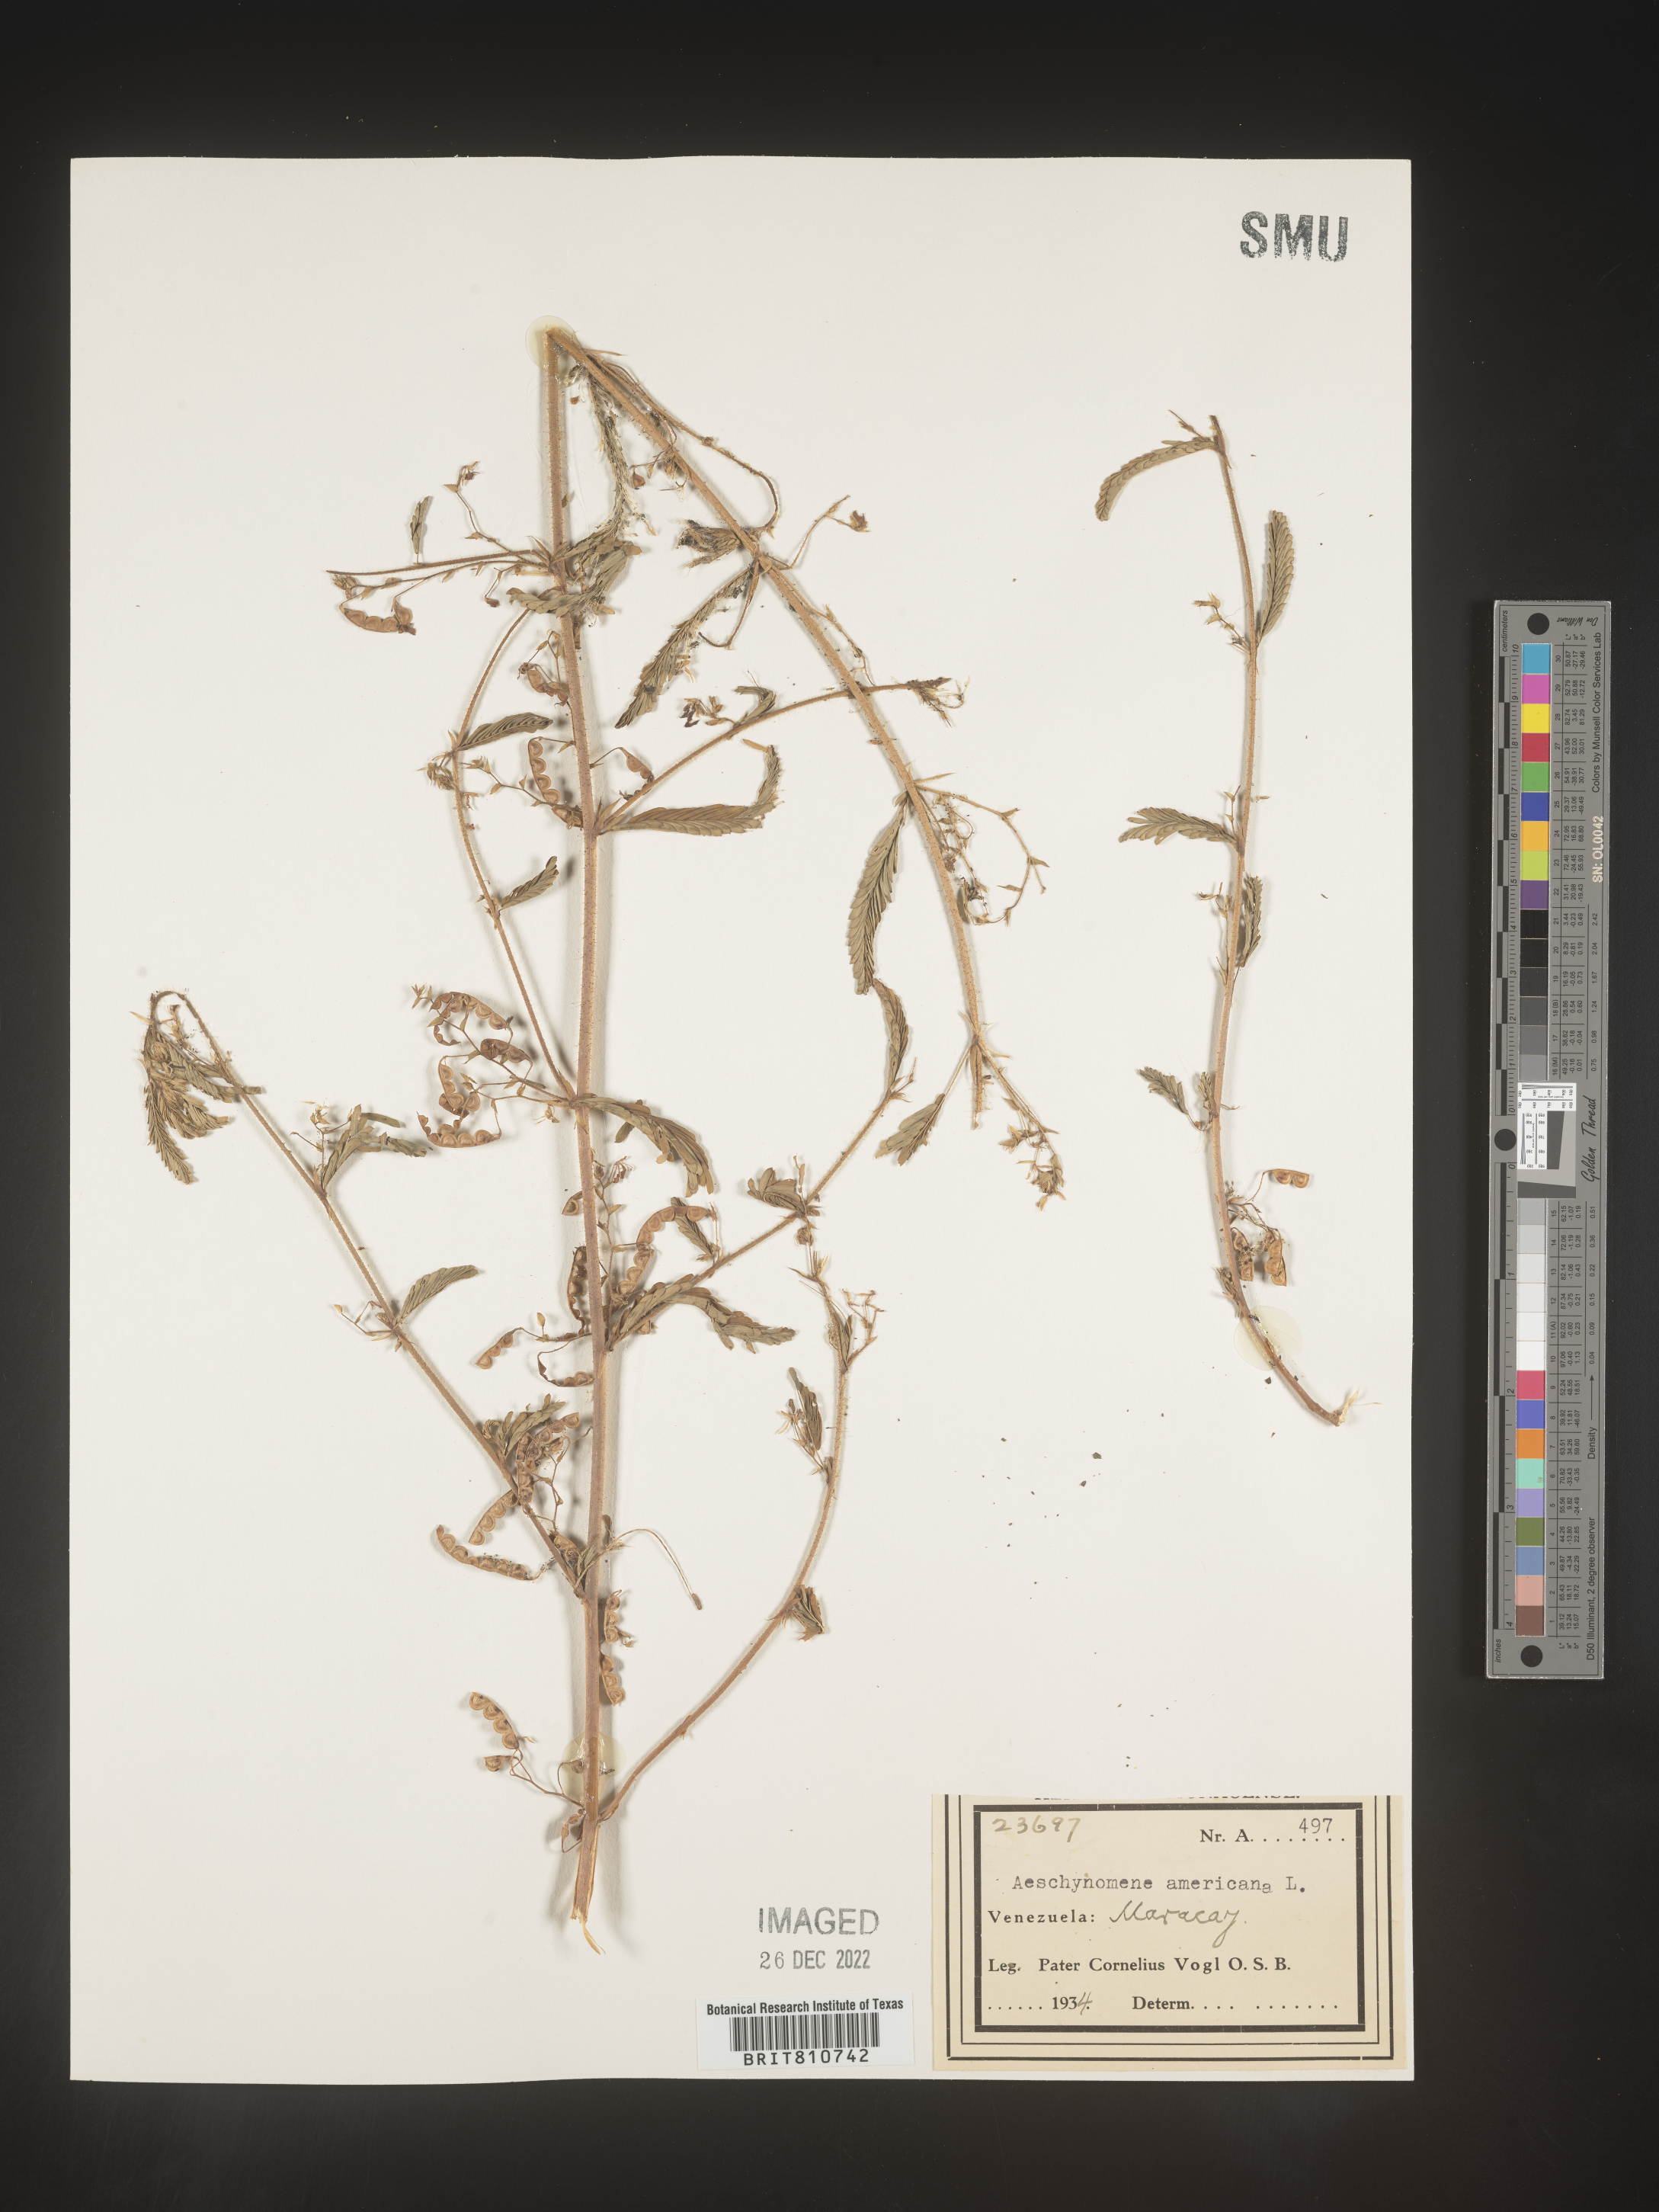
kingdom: Plantae
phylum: Tracheophyta
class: Magnoliopsida
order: Fabales
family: Fabaceae
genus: Aeschynomene
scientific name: Aeschynomene
